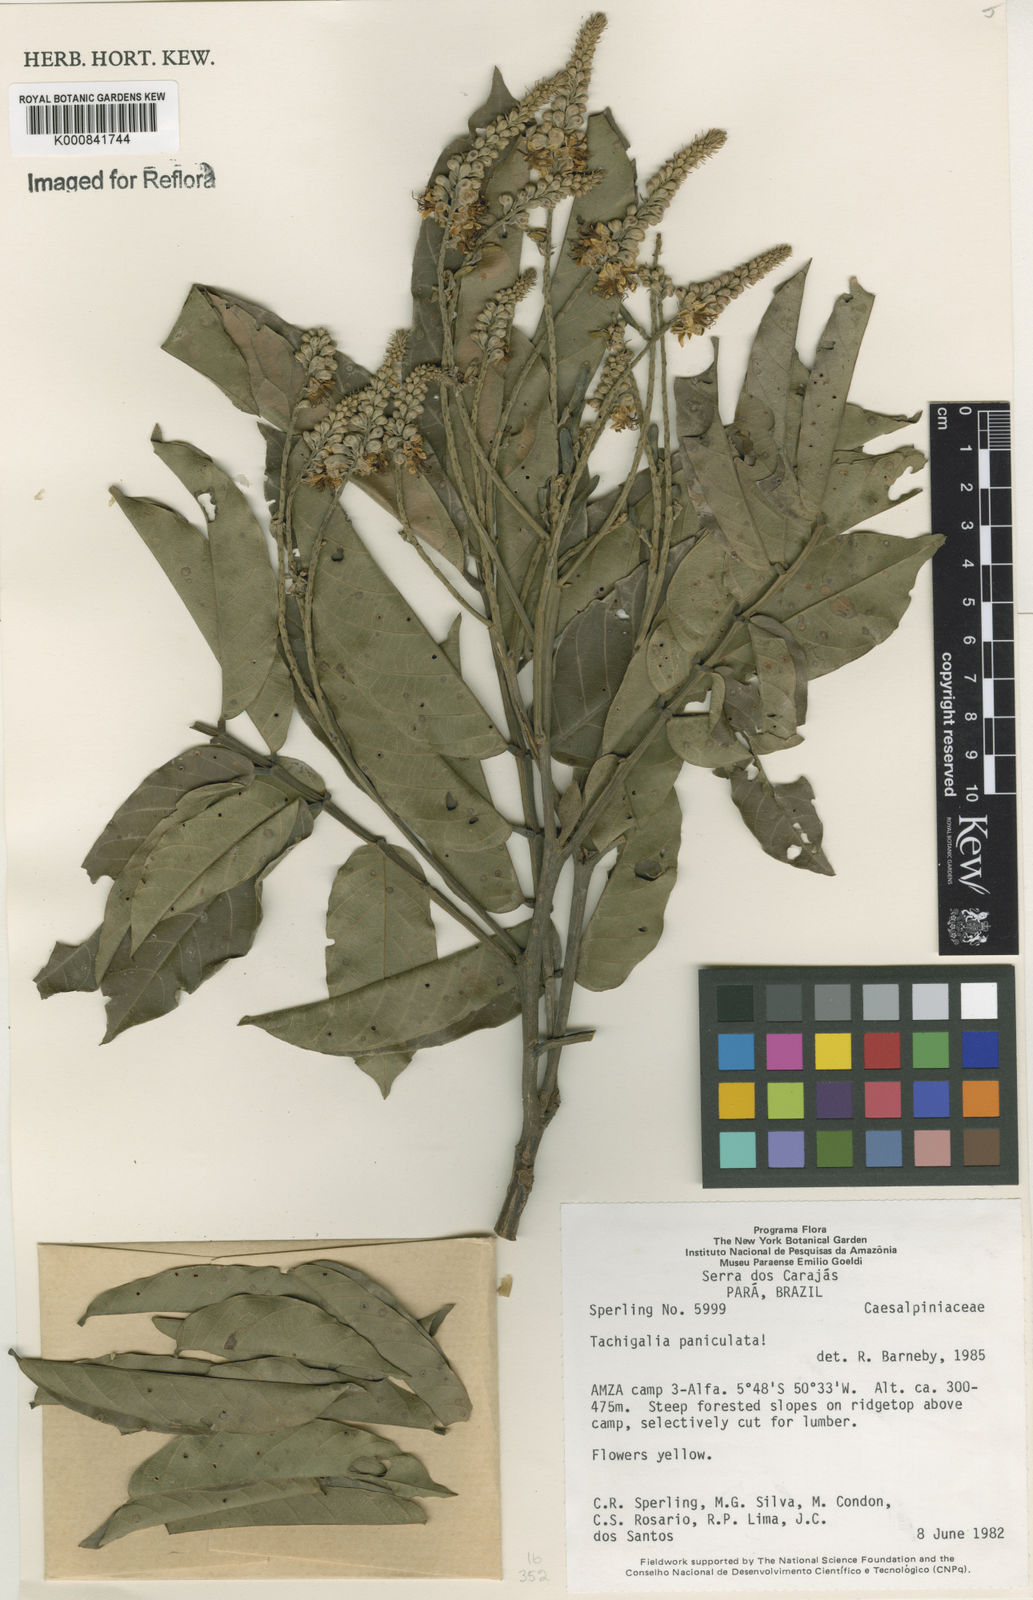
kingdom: Plantae
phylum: Tracheophyta
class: Magnoliopsida
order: Fabales
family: Fabaceae
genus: Tachigali
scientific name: Tachigali paniculata
